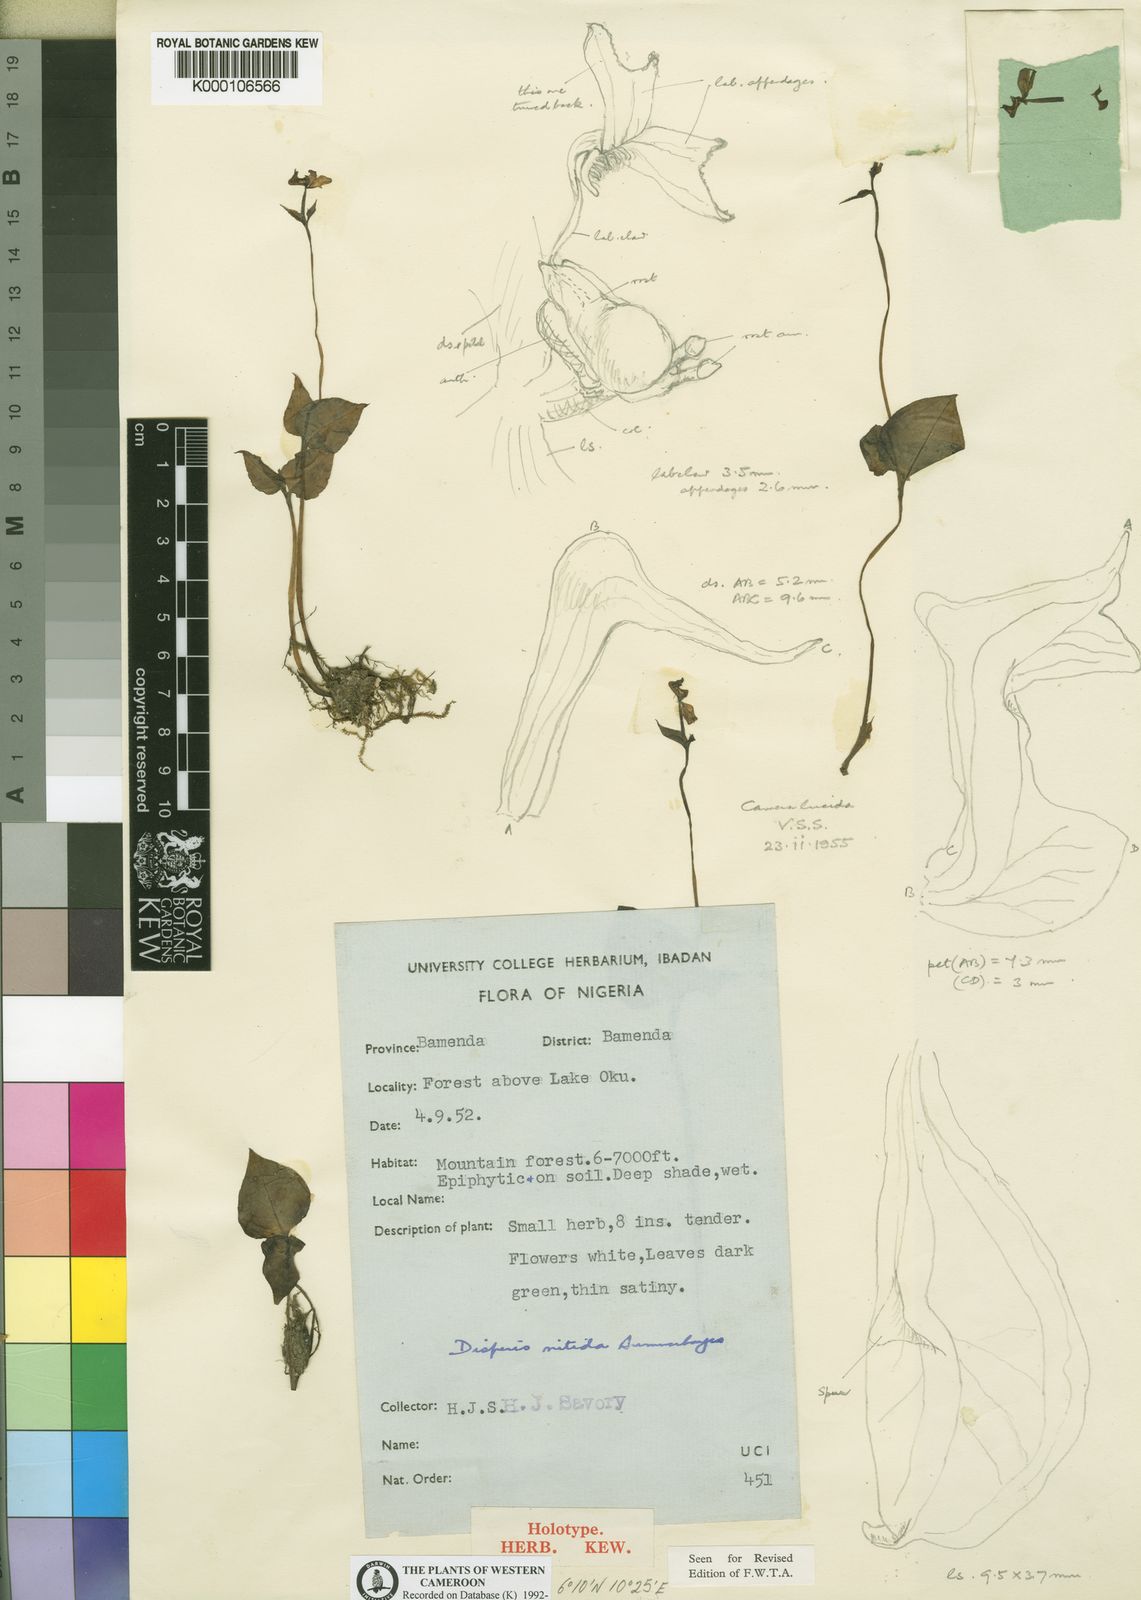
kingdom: Plantae
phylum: Tracheophyta
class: Liliopsida
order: Asparagales
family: Orchidaceae
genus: Disperis
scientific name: Disperis nitida
